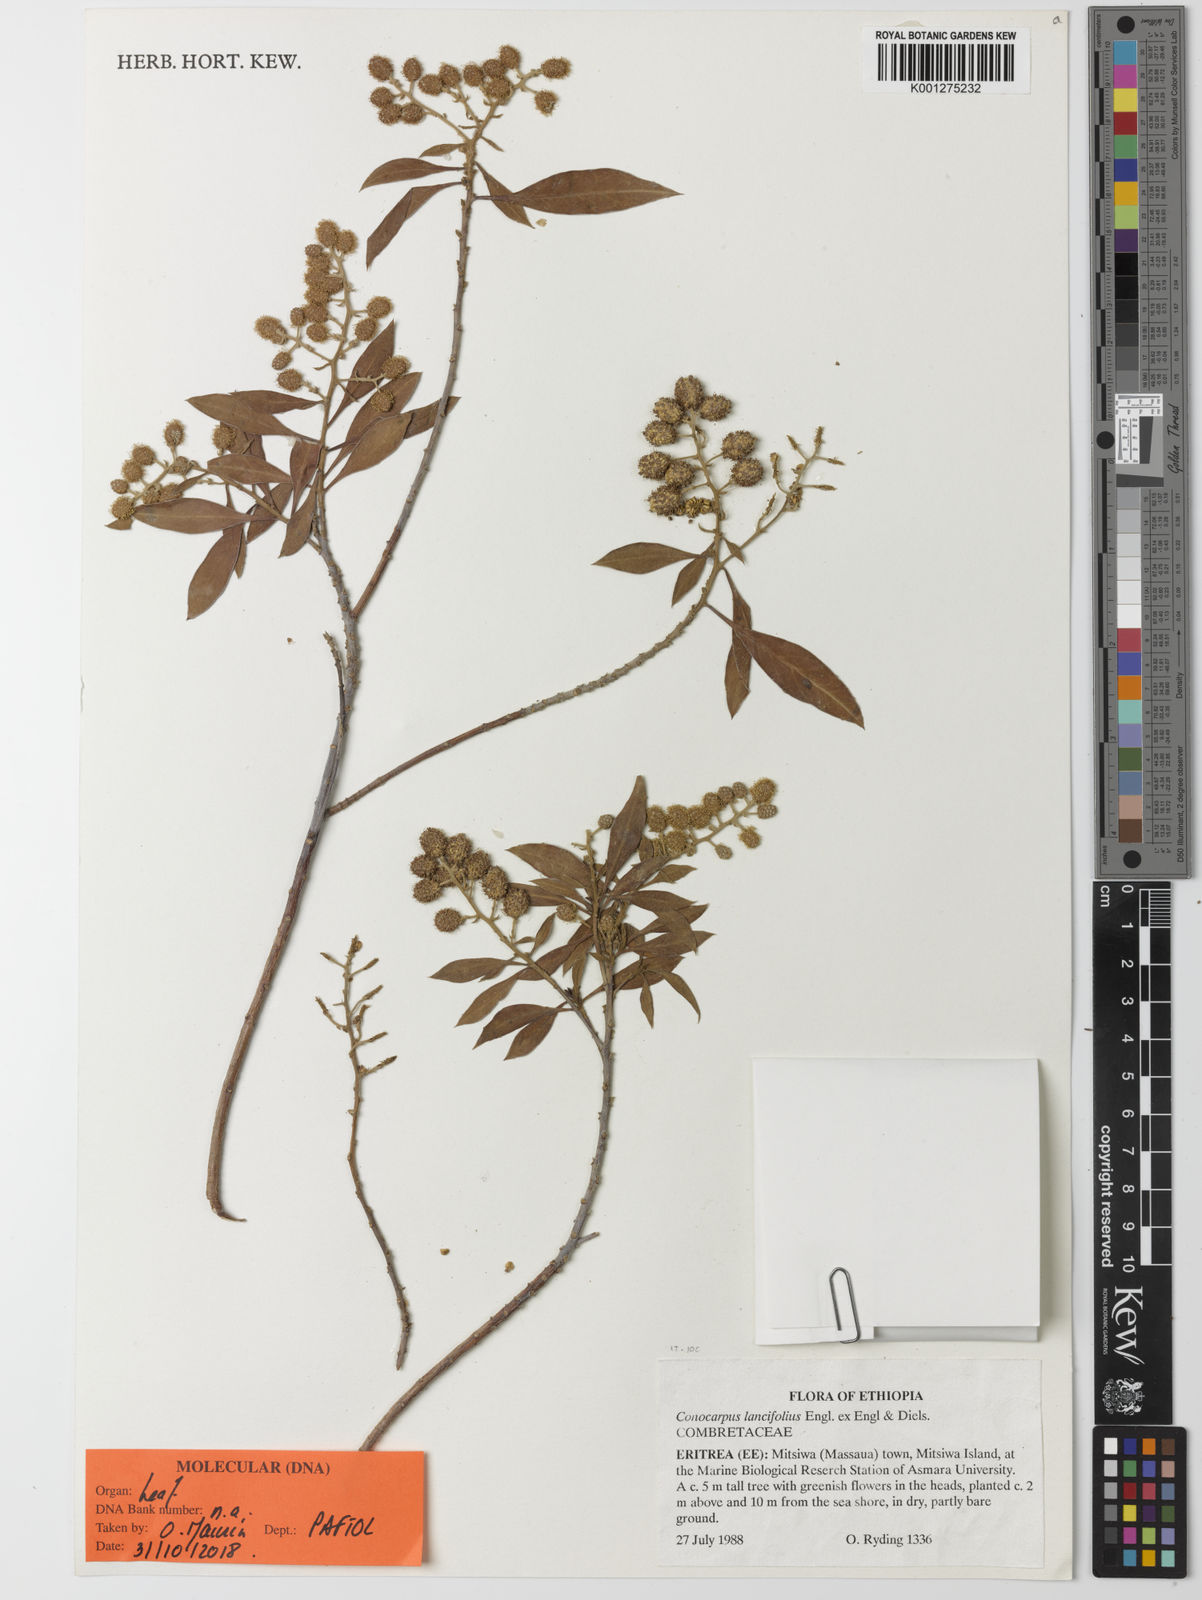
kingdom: Plantae
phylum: Tracheophyta
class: Magnoliopsida
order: Myrtales
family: Combretaceae
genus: Conocarpus
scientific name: Conocarpus lancifolius
